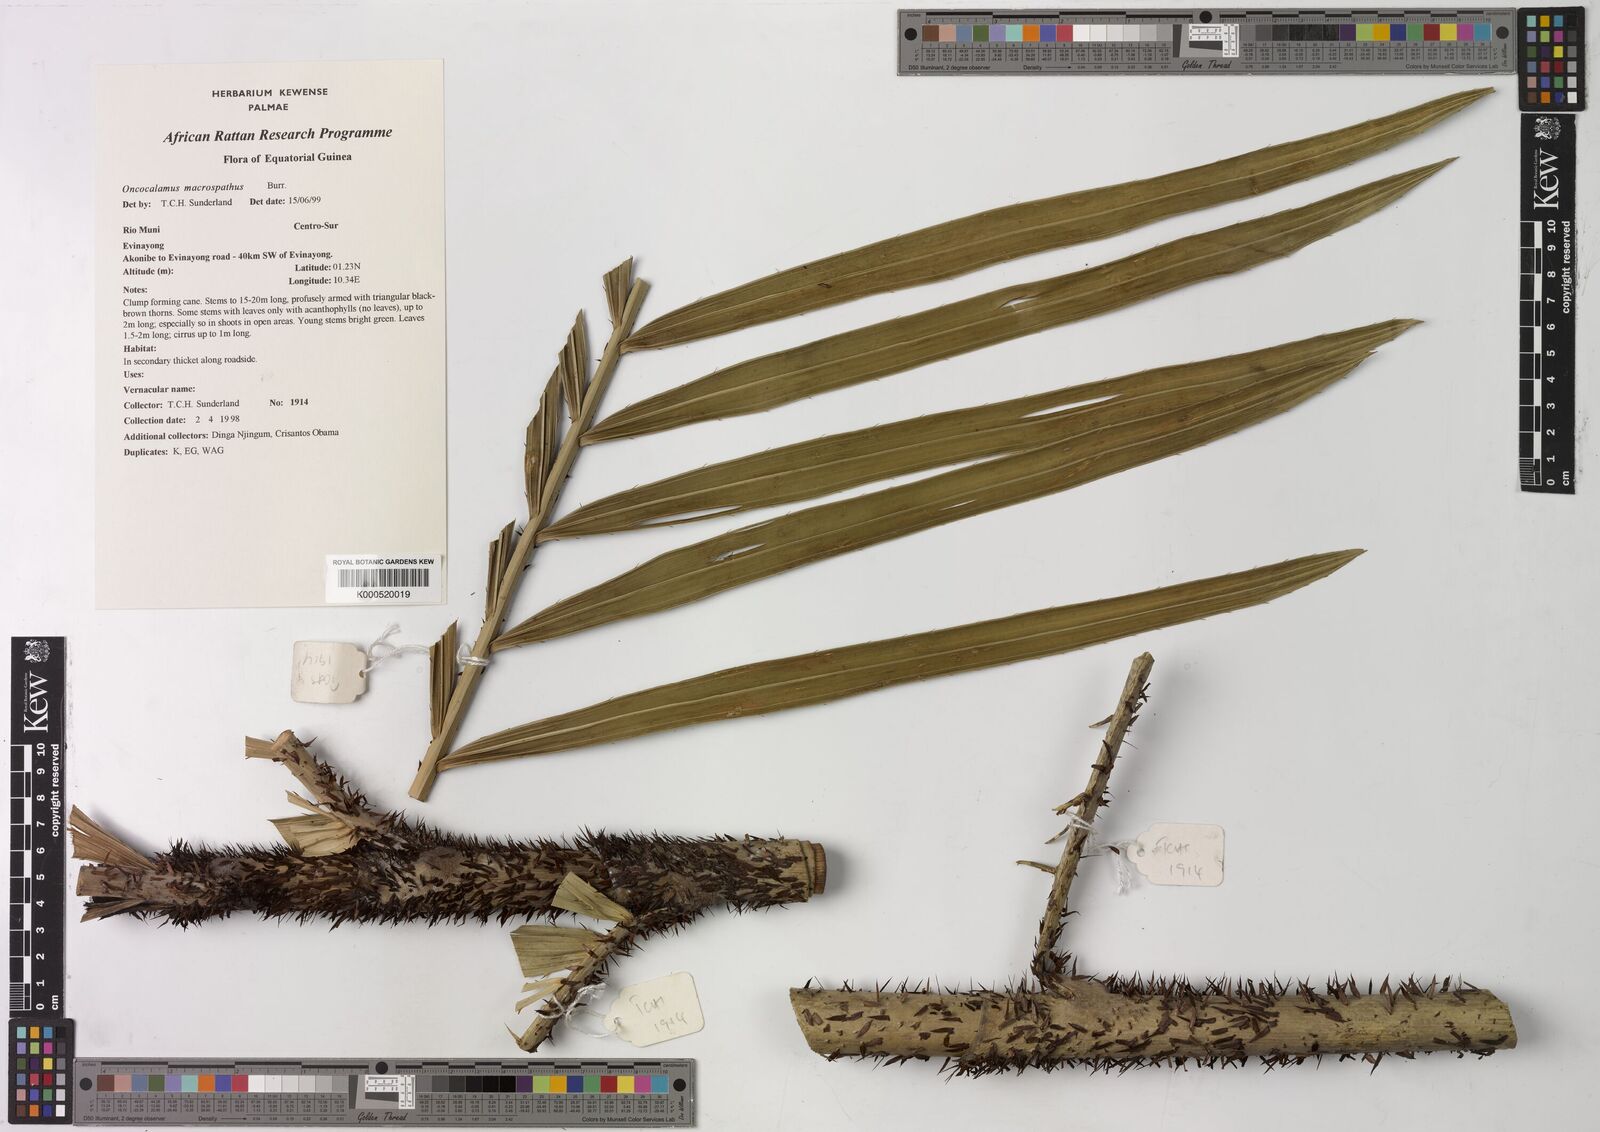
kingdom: Plantae
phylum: Tracheophyta
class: Liliopsida
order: Arecales
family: Arecaceae
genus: Oncocalamus
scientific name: Oncocalamus macrospathus
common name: Rattan
